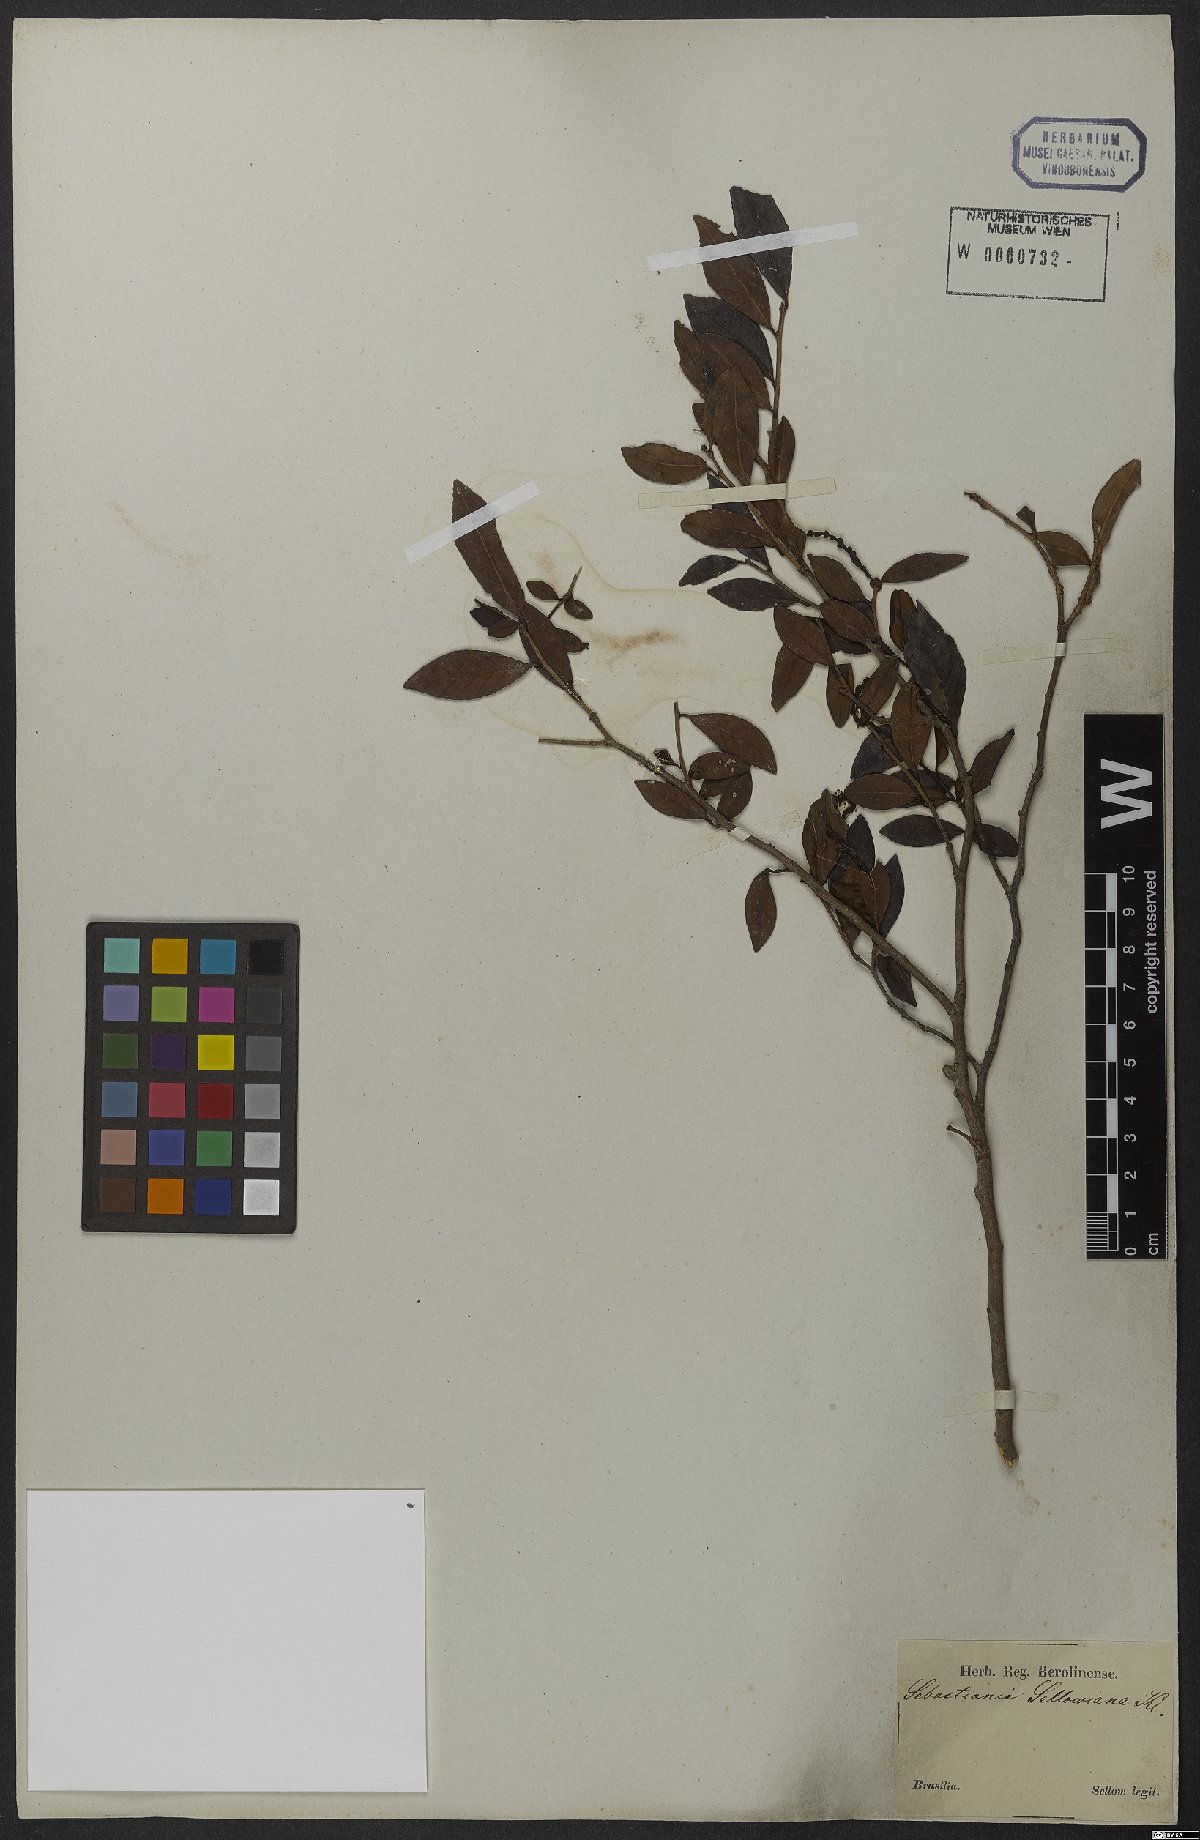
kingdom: Plantae
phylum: Tracheophyta
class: Magnoliopsida
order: Malpighiales
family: Euphorbiaceae
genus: Sebastiania
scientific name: Sebastiania ramosissima
